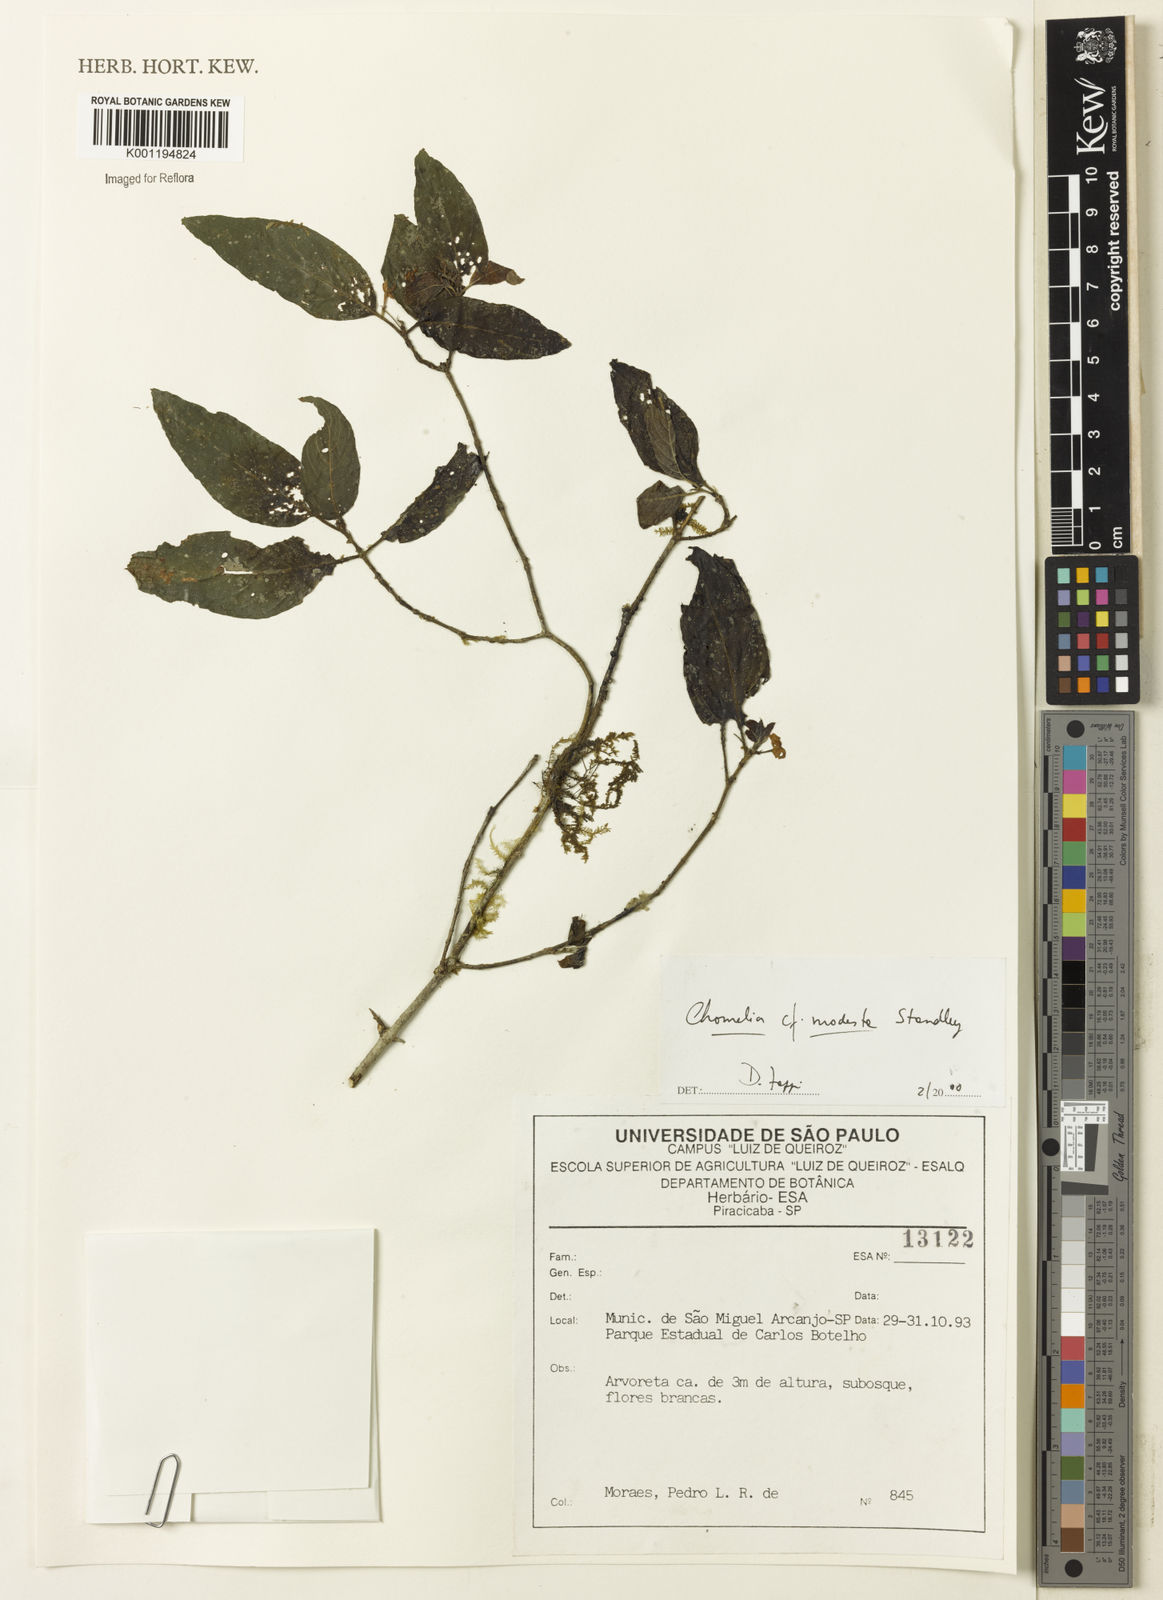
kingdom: Plantae
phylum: Tracheophyta
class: Magnoliopsida
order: Gentianales
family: Rubiaceae
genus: Chomelia
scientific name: Chomelia modesta
